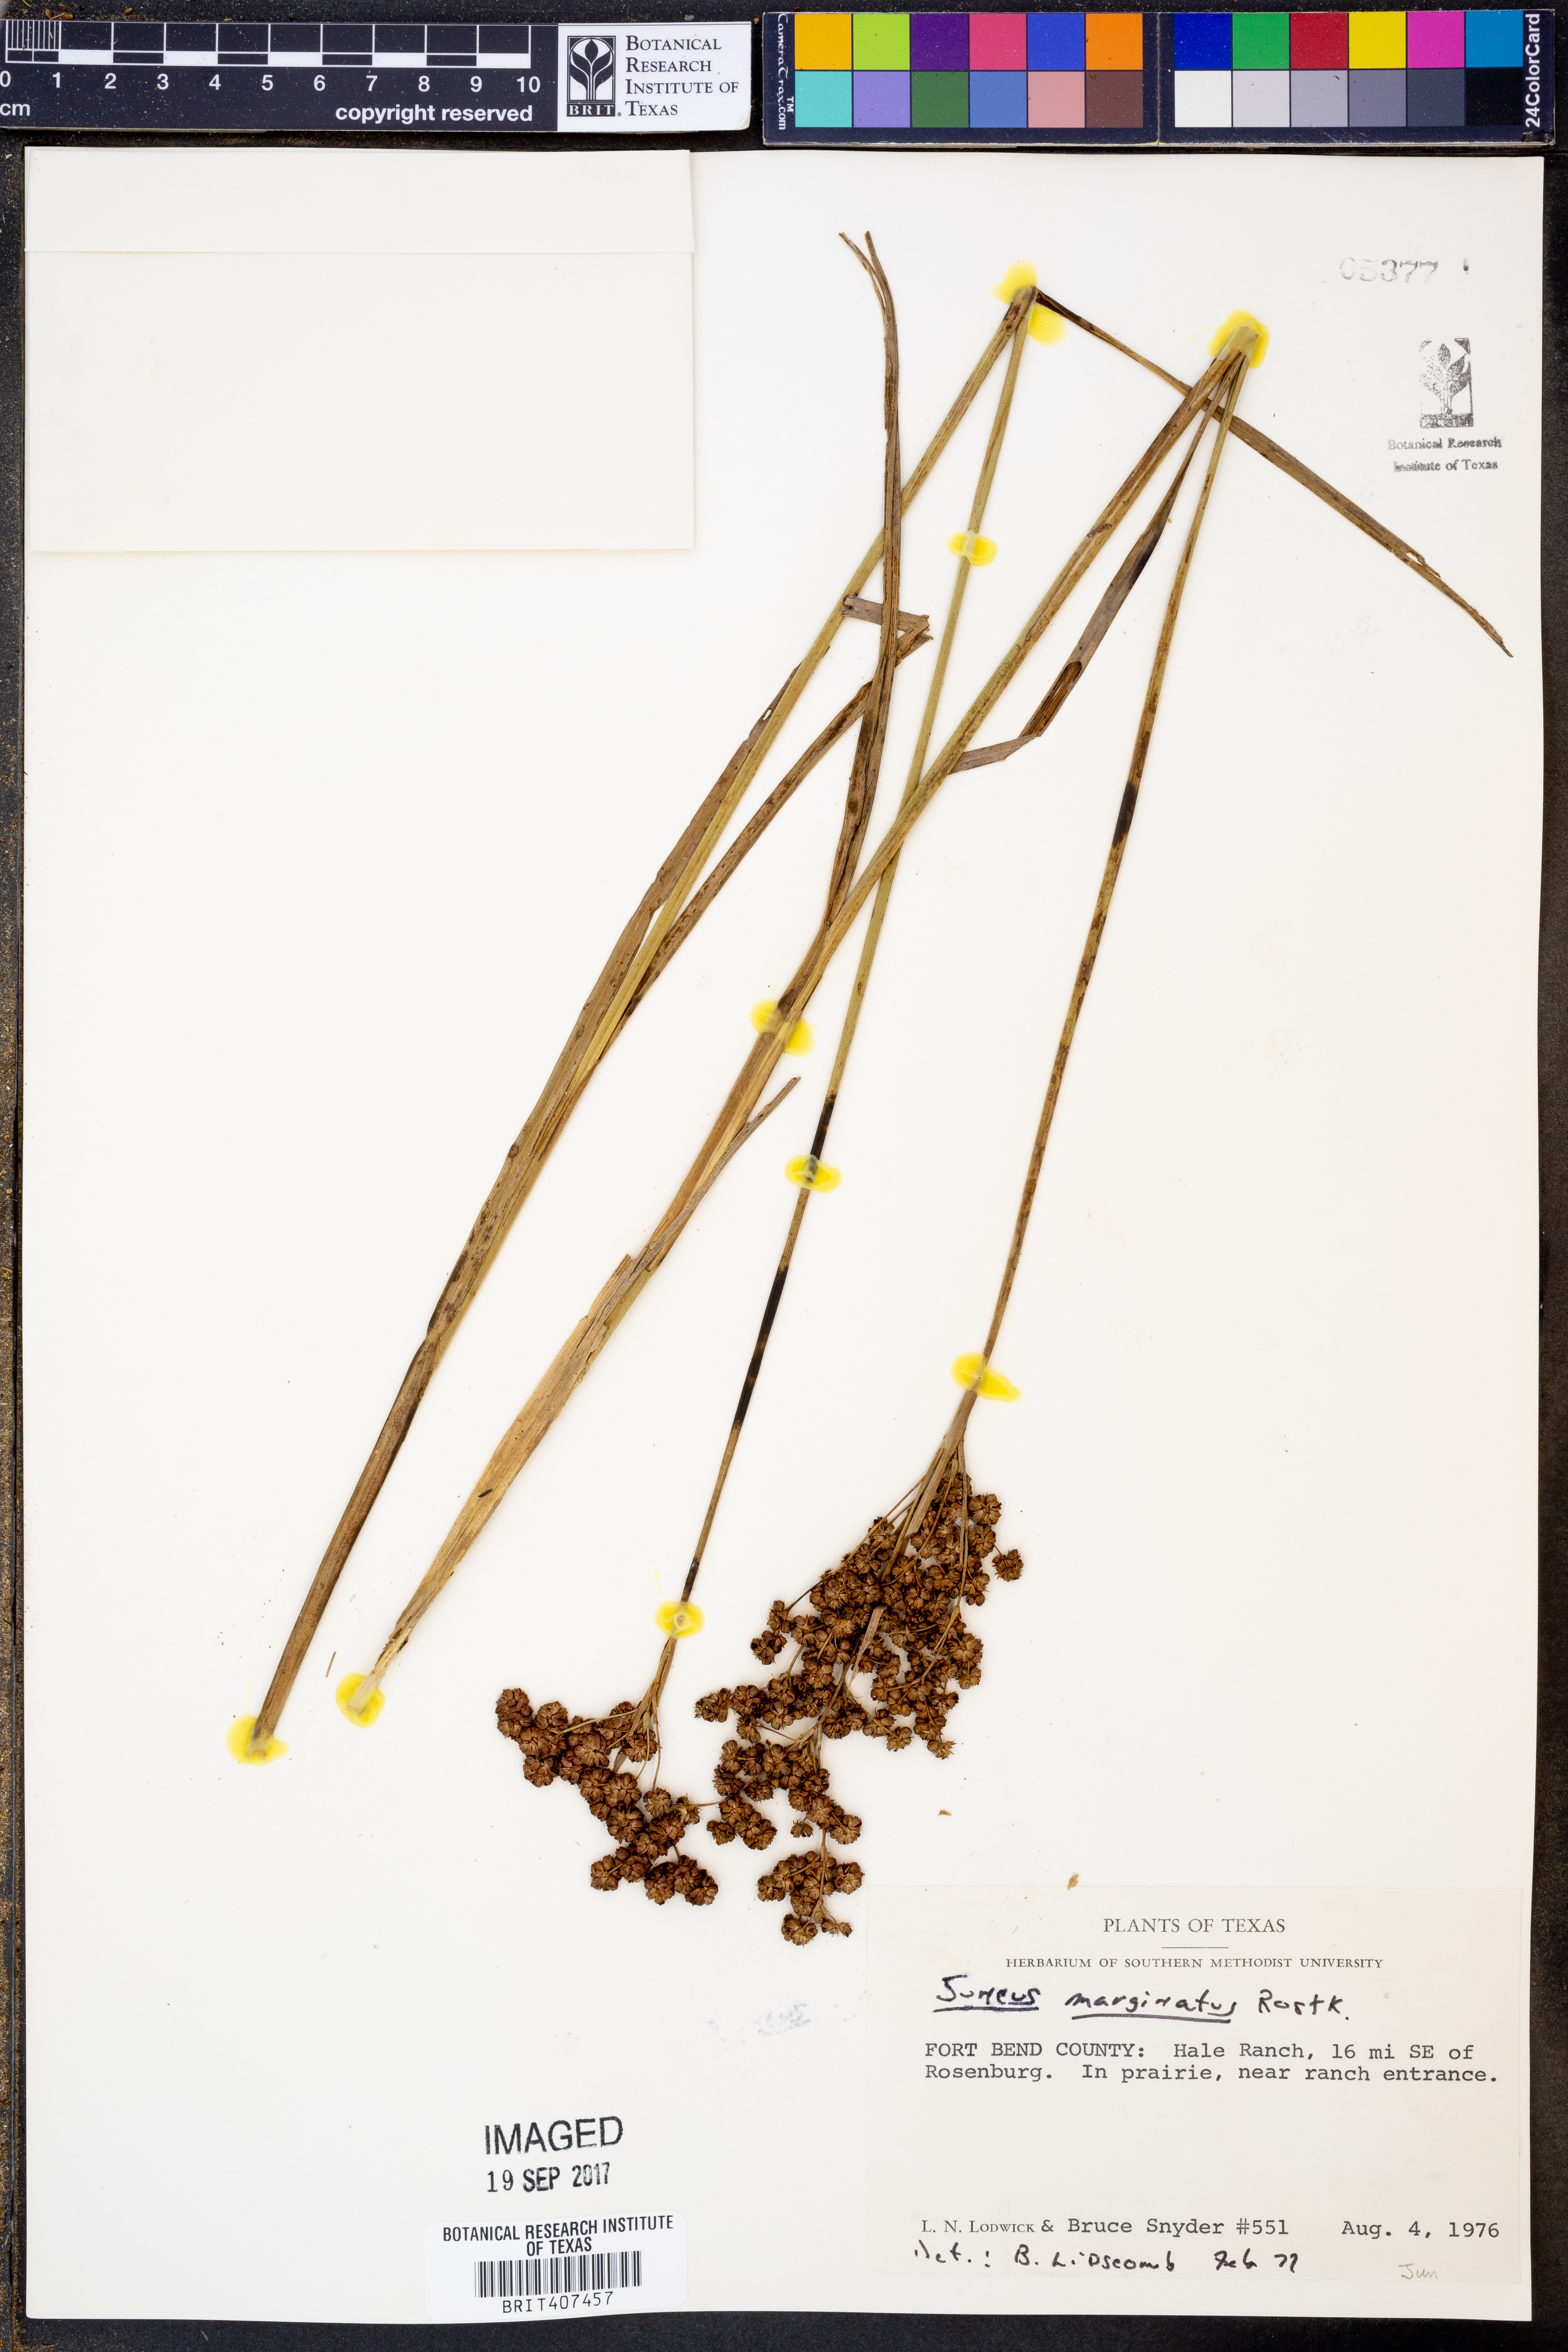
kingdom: Plantae
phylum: Tracheophyta
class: Liliopsida
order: Poales
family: Juncaceae
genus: Juncus
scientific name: Juncus marginatus
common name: Grass-leaf rush
